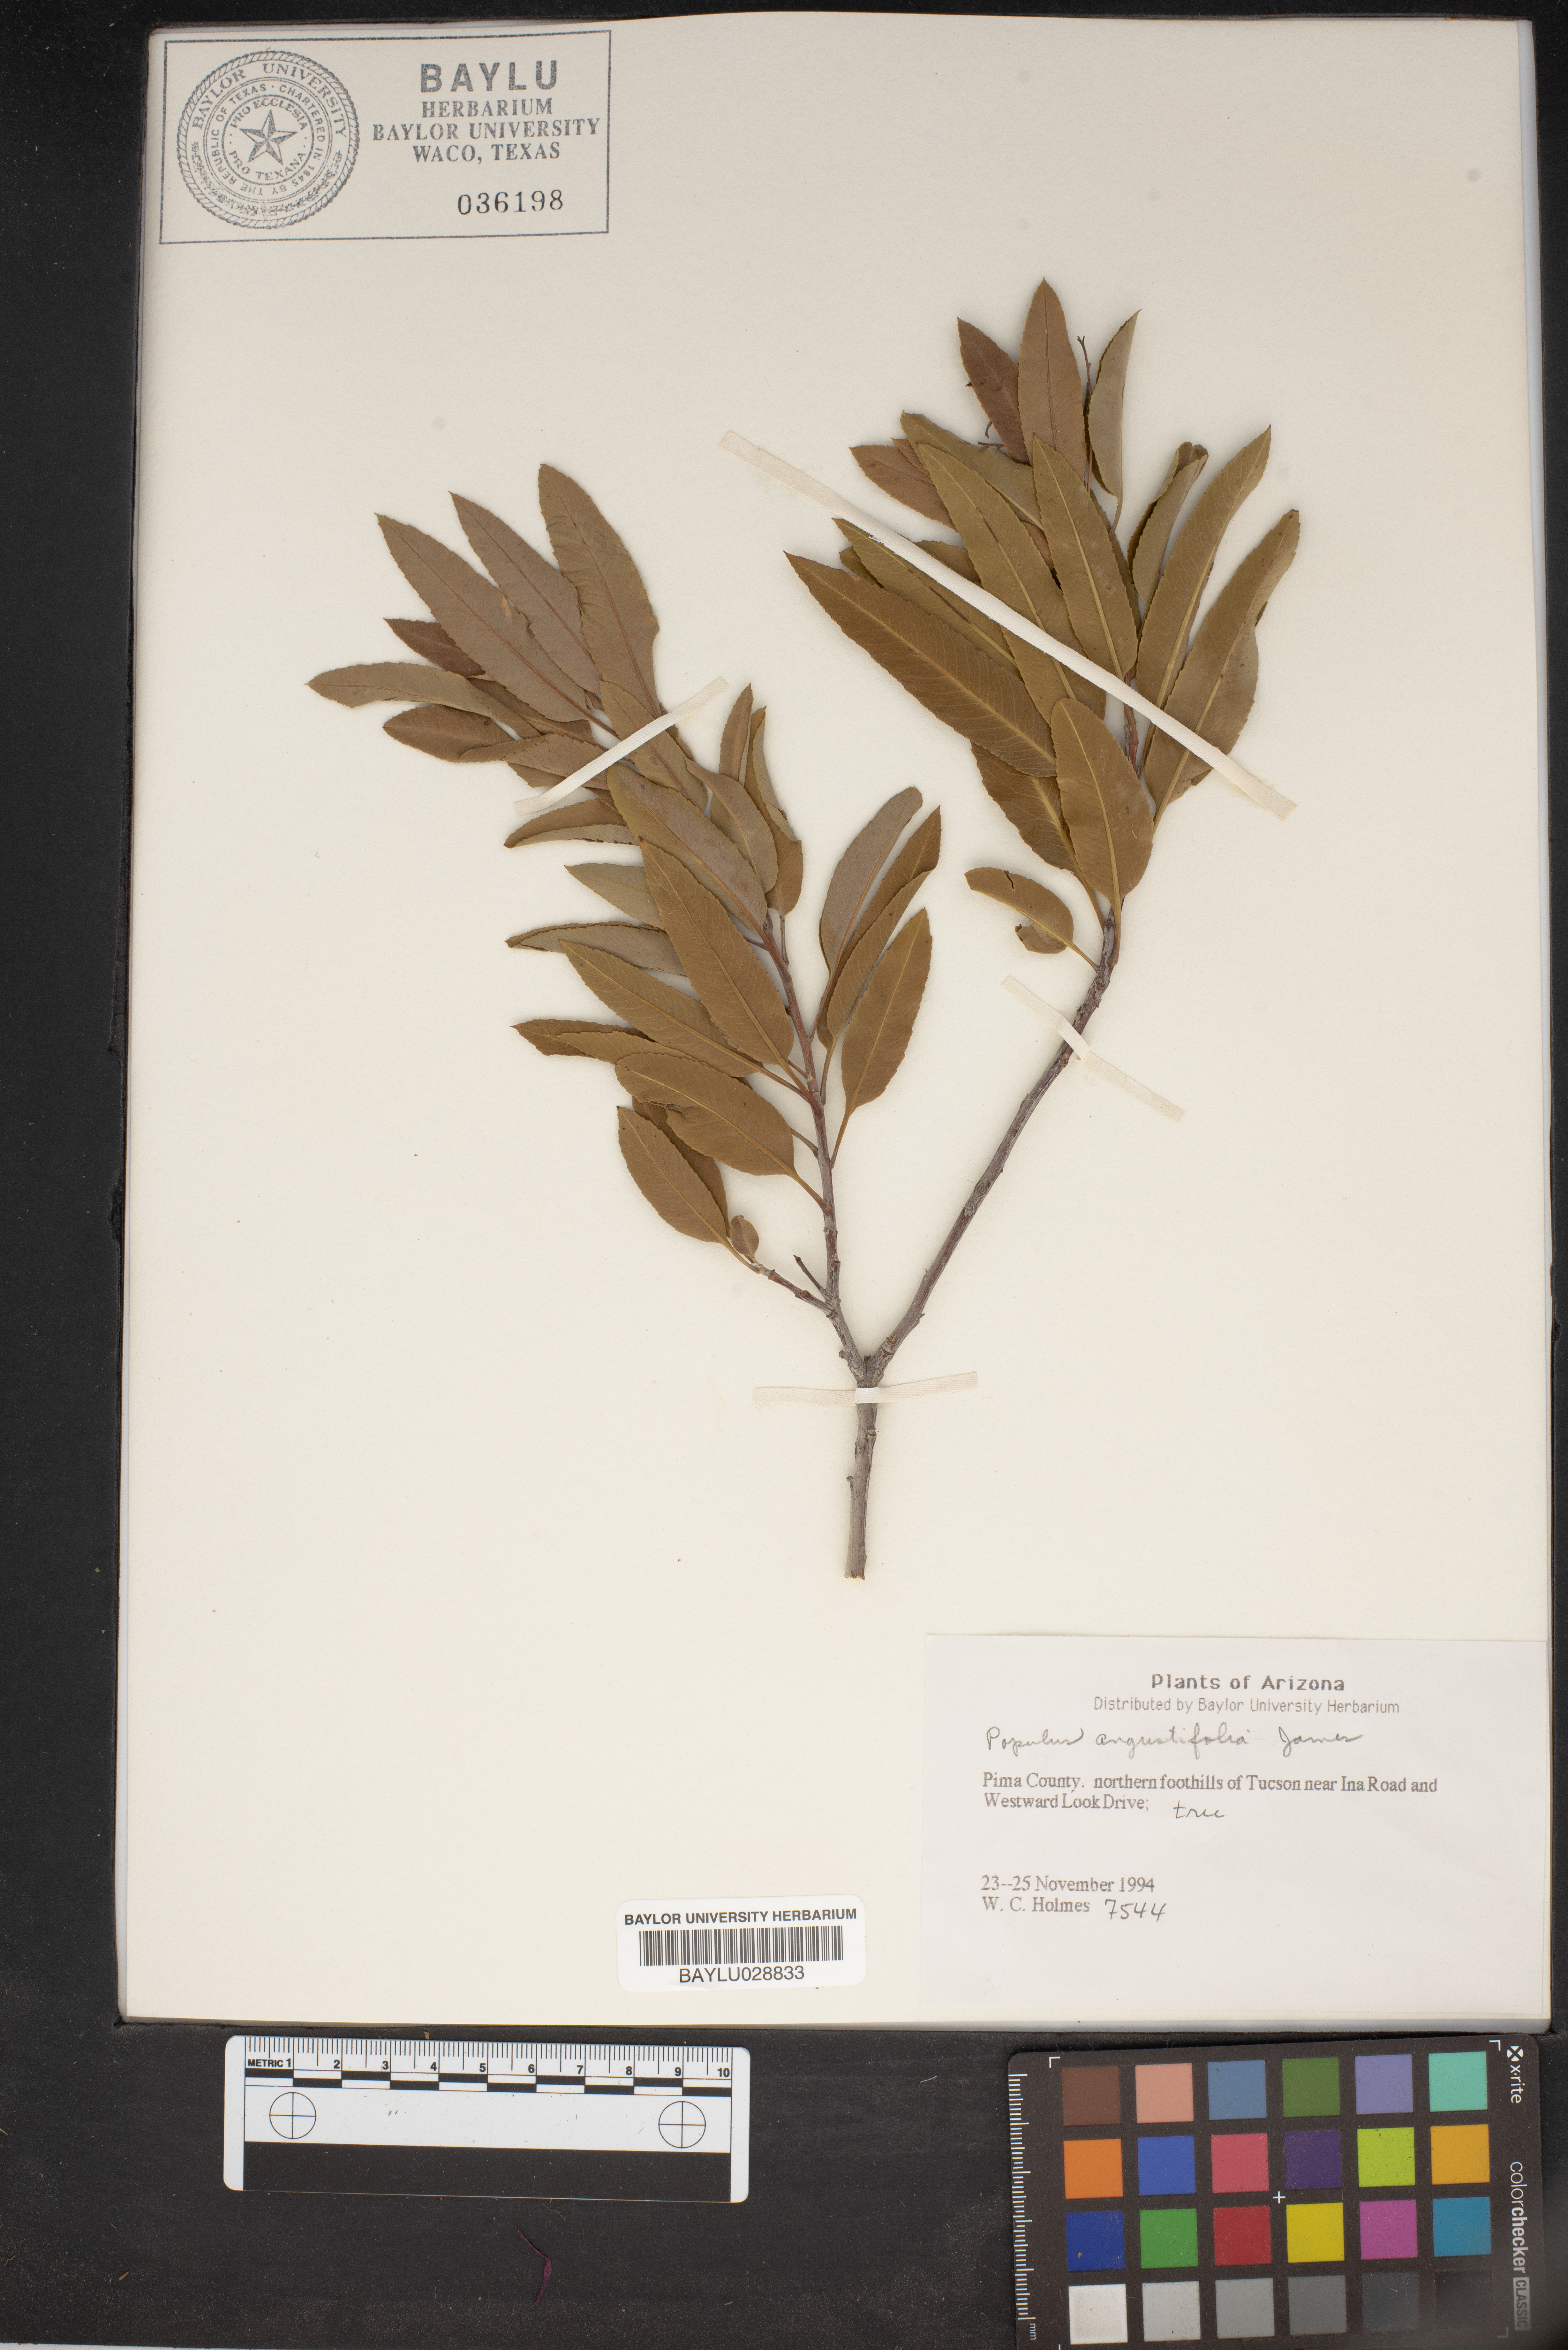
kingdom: Plantae
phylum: Tracheophyta
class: Magnoliopsida
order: Malpighiales
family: Salicaceae
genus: Populus
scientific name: Populus angustifolia
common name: Willow cottonwood
